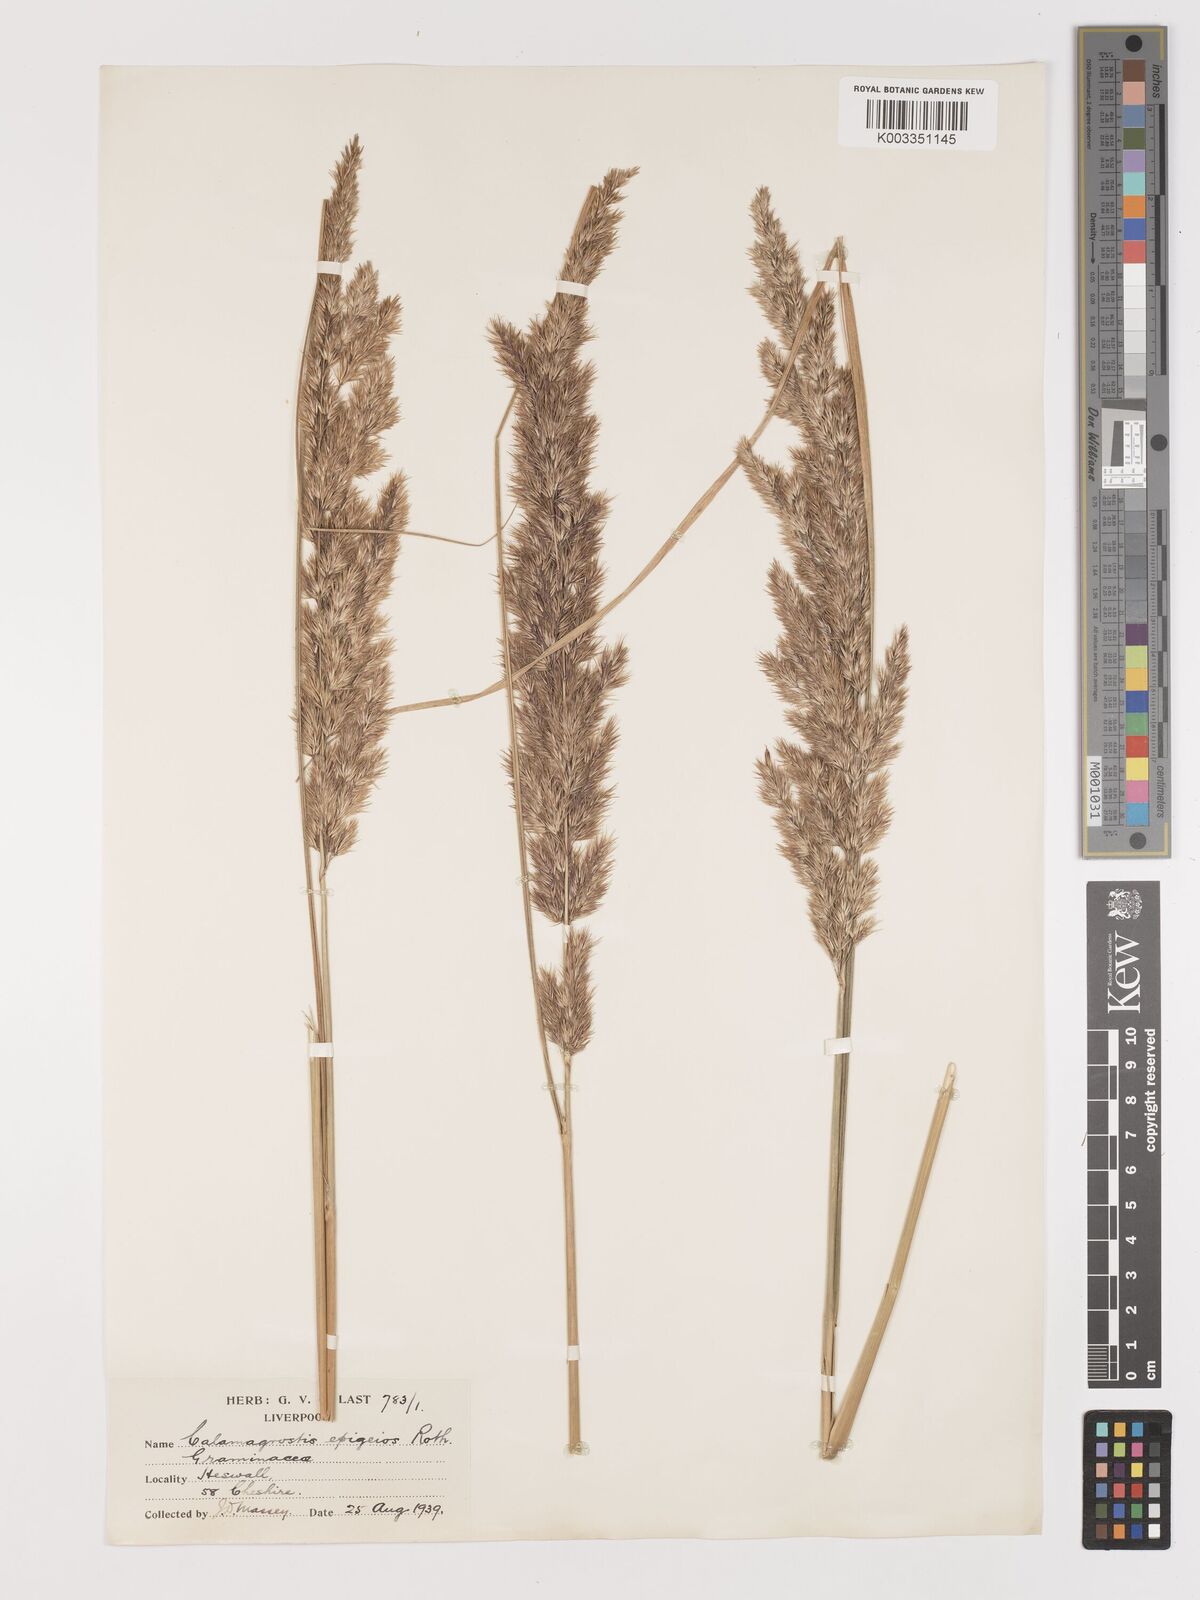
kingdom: Plantae
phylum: Tracheophyta
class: Liliopsida
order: Poales
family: Poaceae
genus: Calamagrostis
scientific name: Calamagrostis
